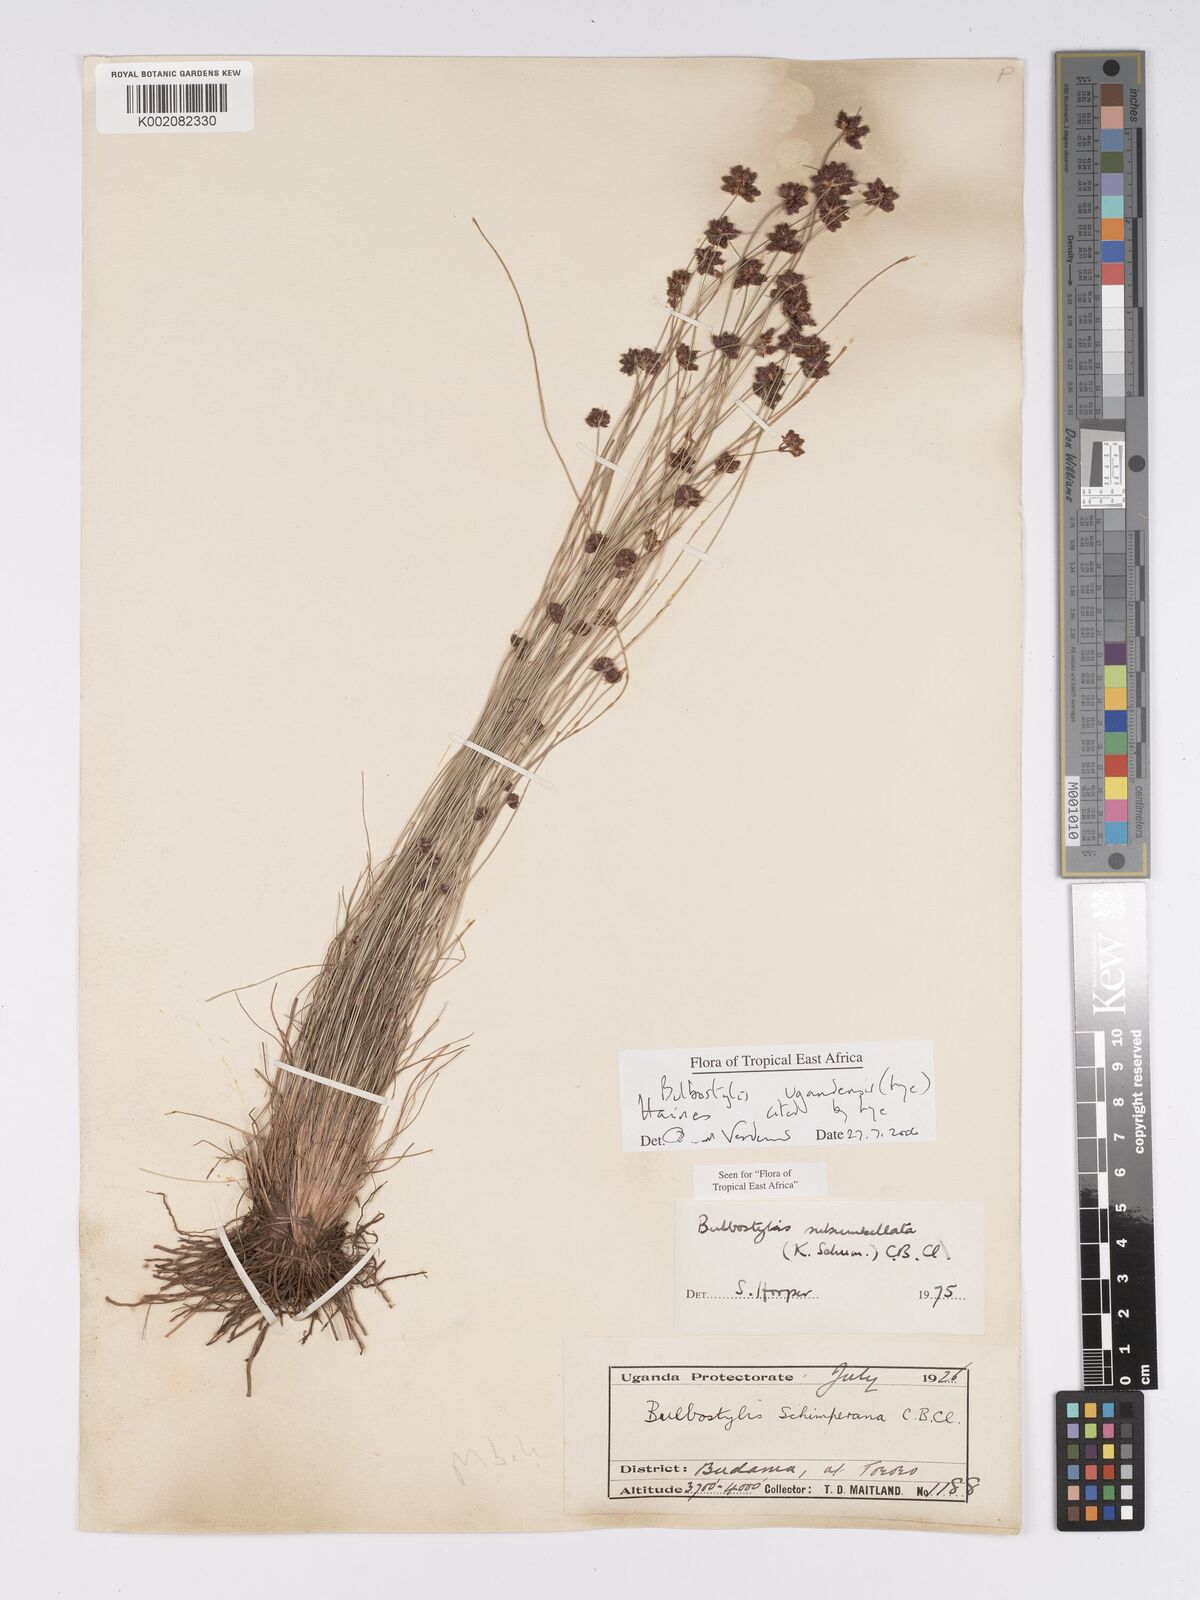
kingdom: Plantae
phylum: Tracheophyta
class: Liliopsida
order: Poales
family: Cyperaceae
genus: Bulbostylis
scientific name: Bulbostylis ugandensis
